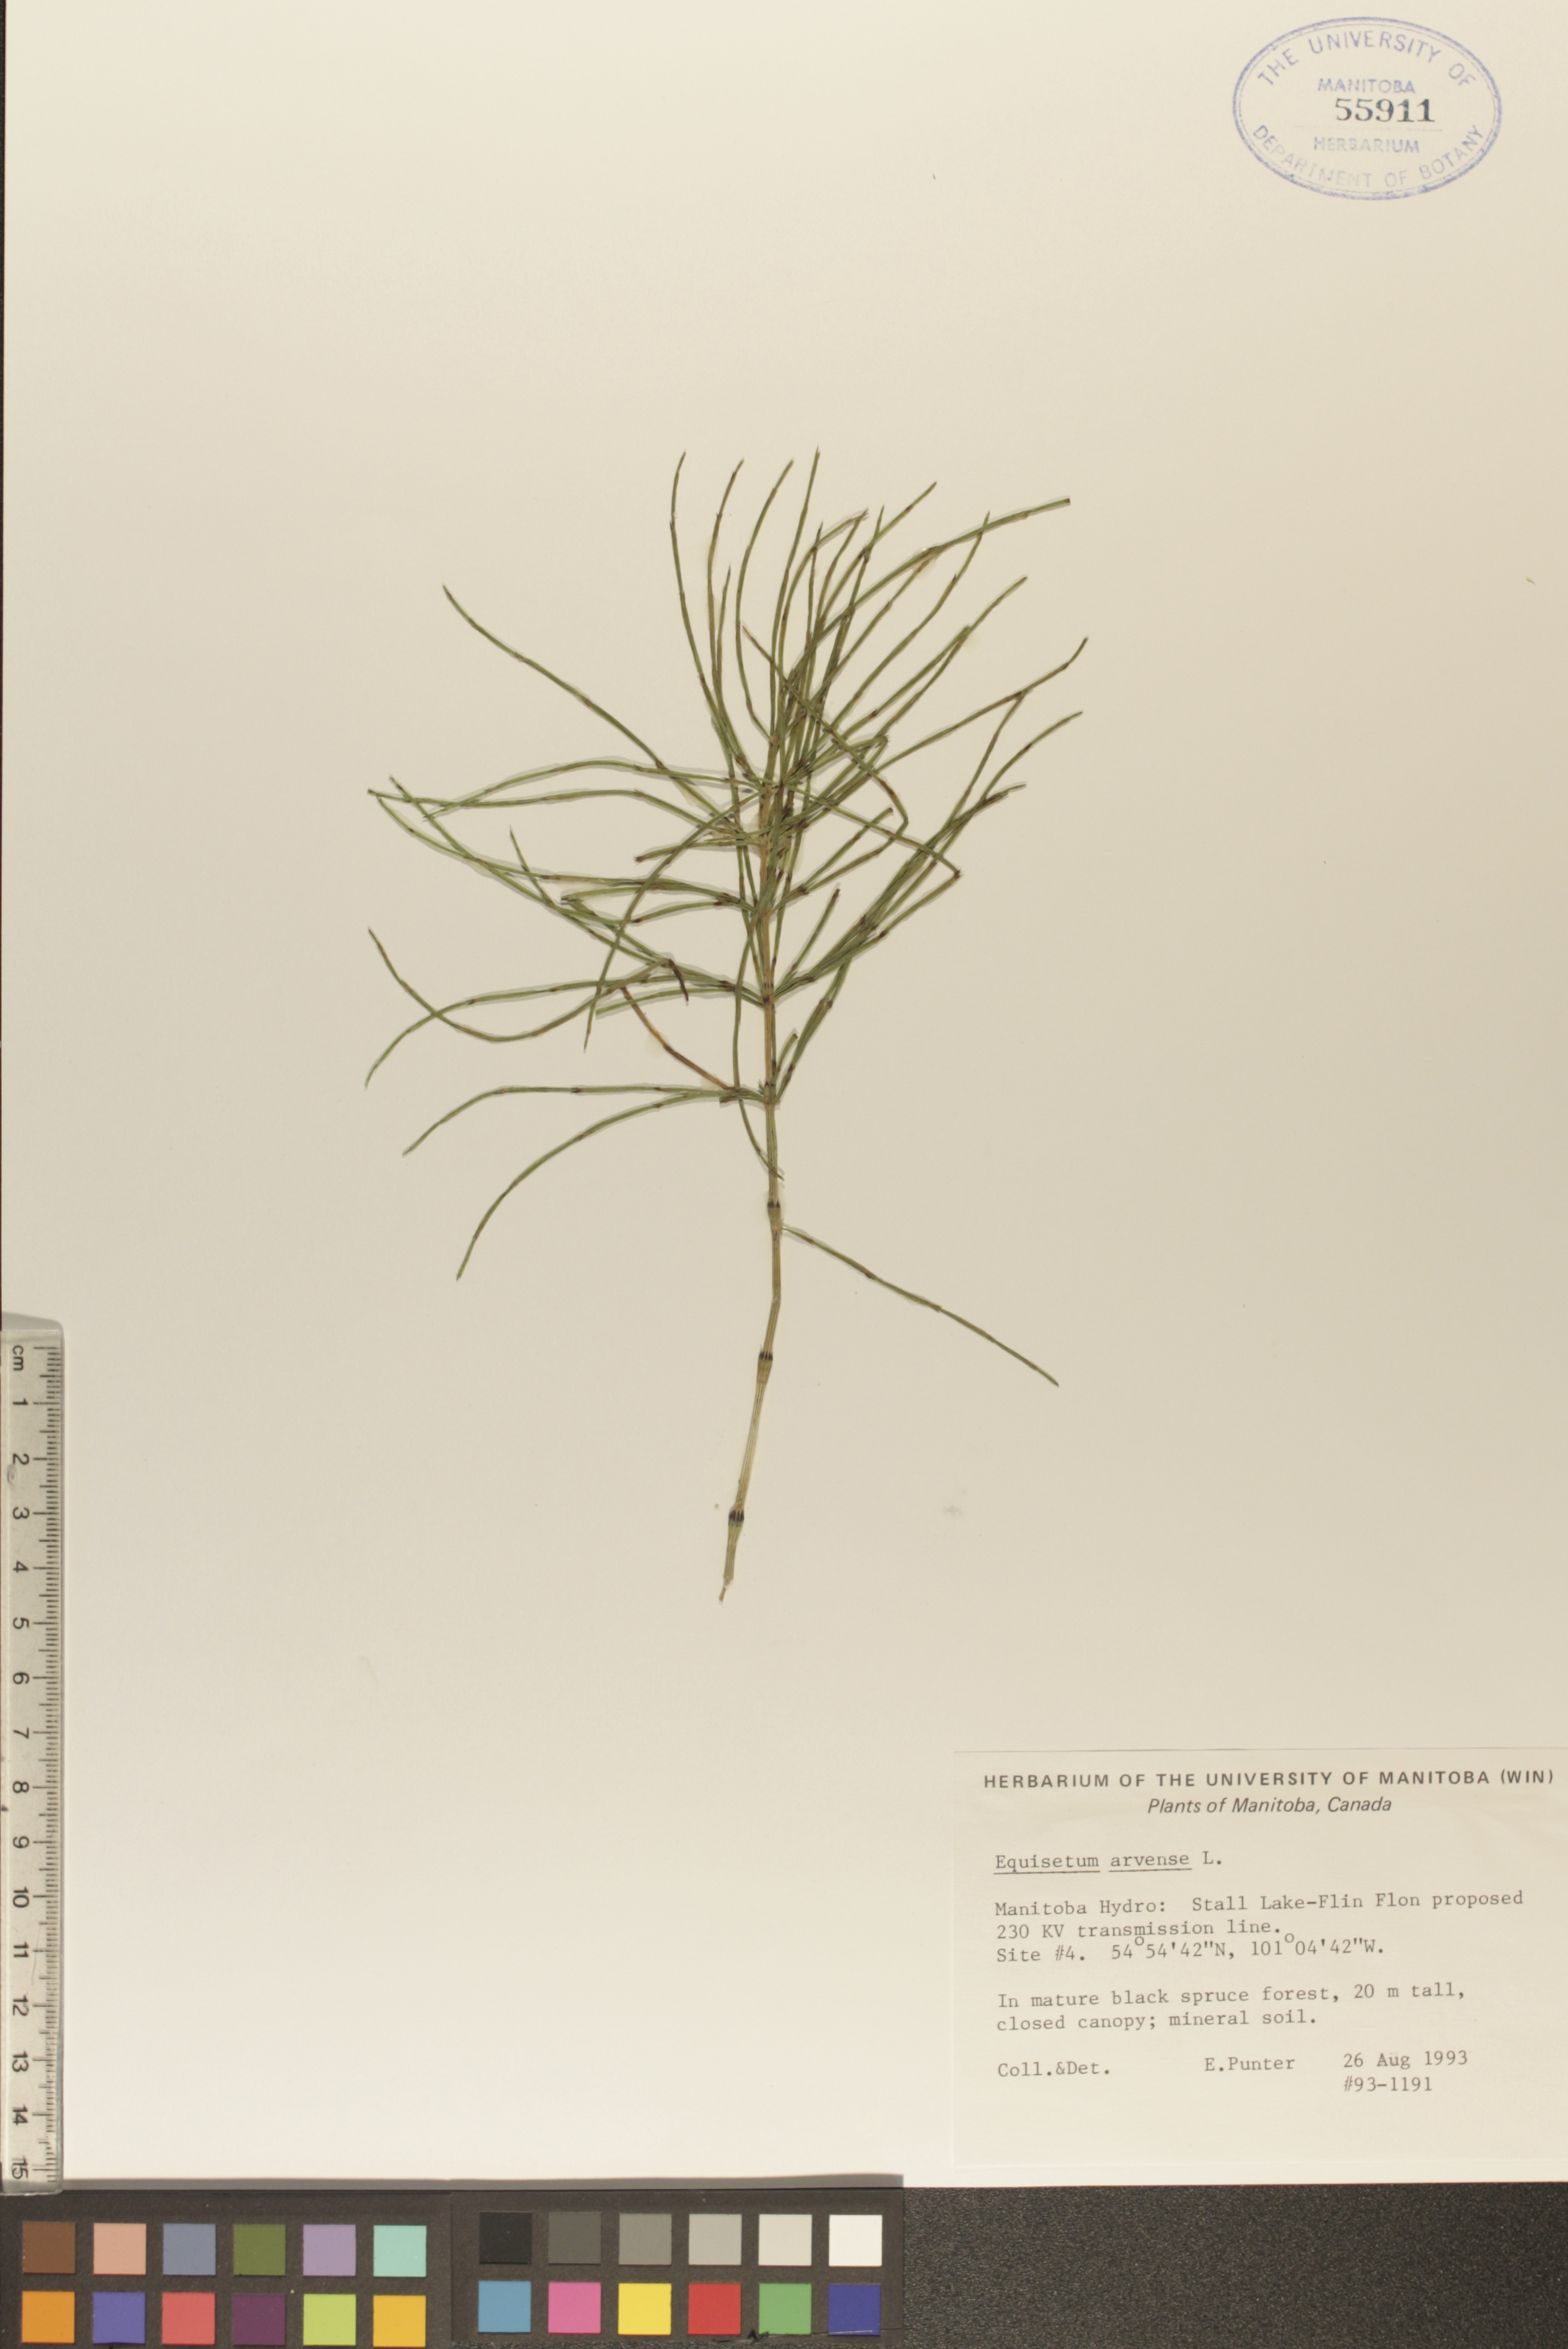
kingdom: Plantae
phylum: Tracheophyta
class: Polypodiopsida
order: Equisetales
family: Equisetaceae
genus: Equisetum
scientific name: Equisetum arvense
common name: Field horsetail
